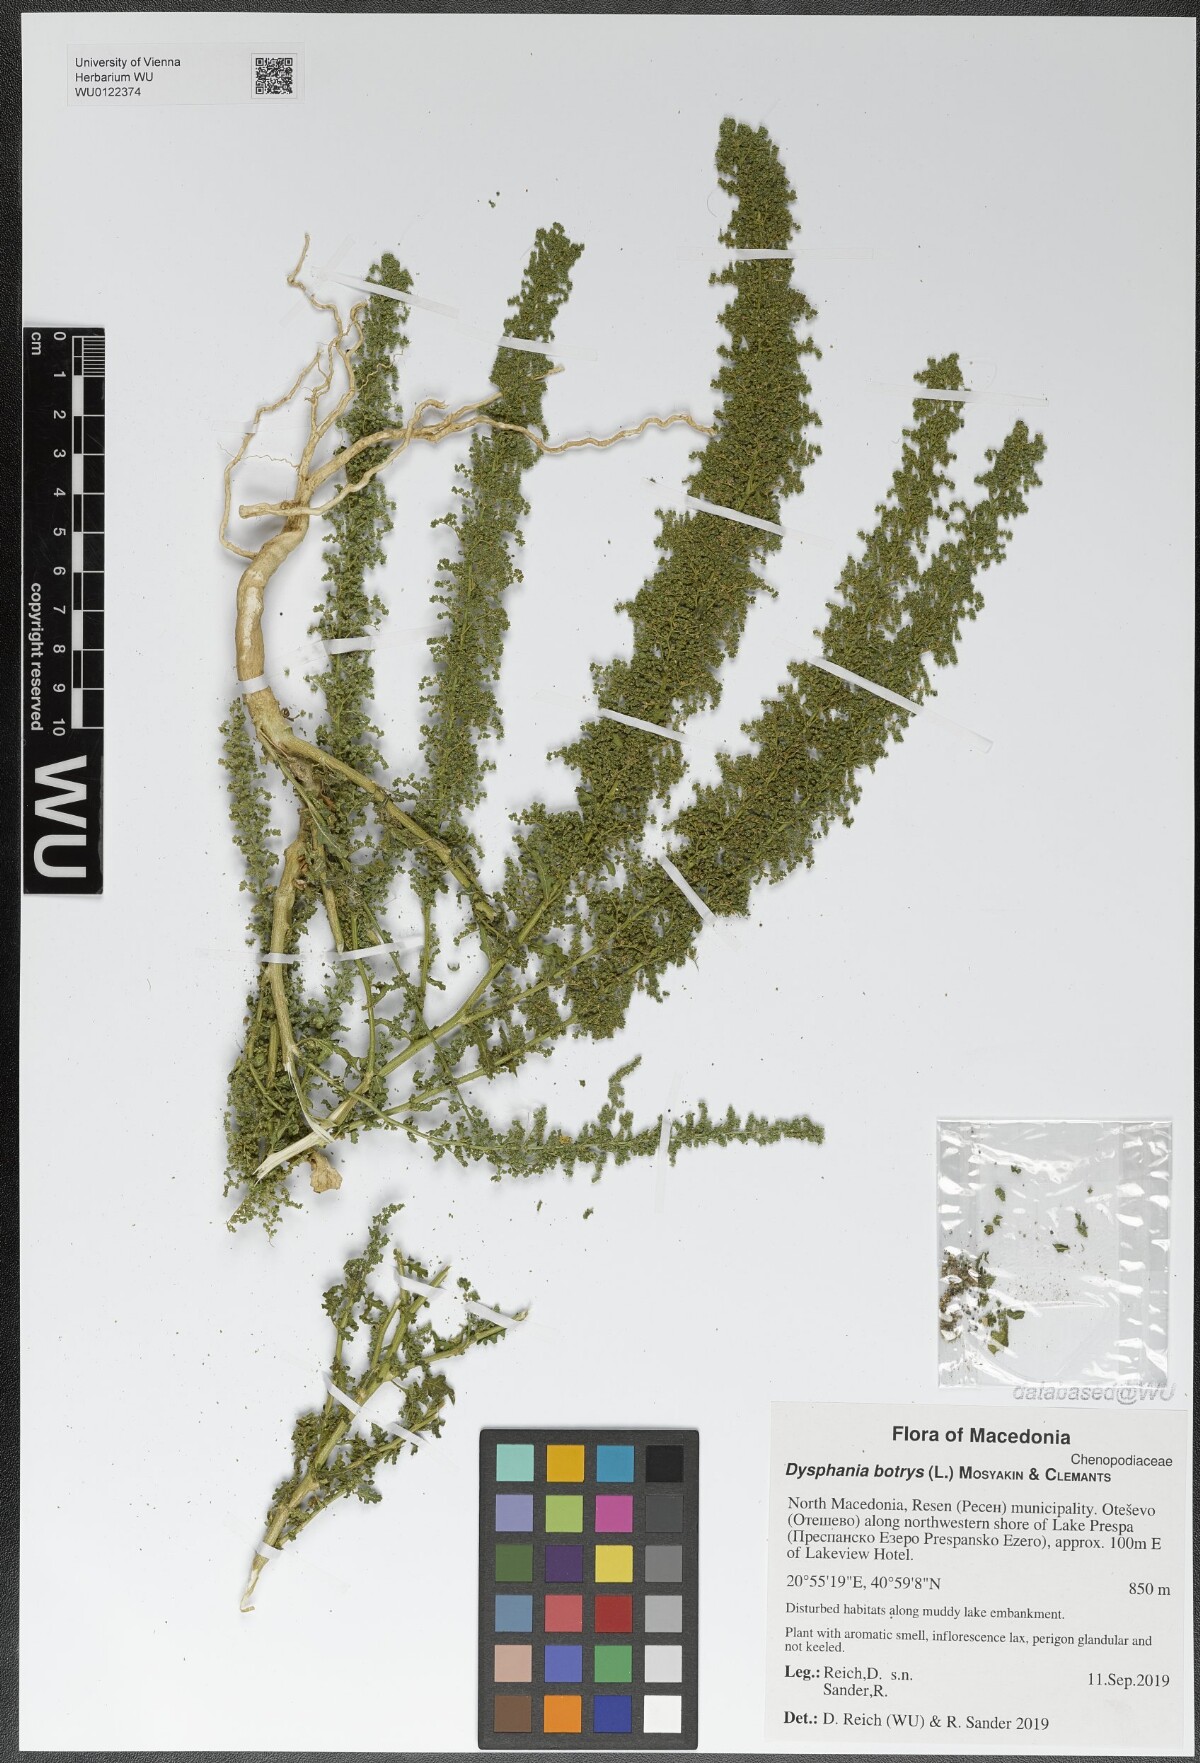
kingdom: Plantae
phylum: Tracheophyta
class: Magnoliopsida
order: Caryophyllales
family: Amaranthaceae
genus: Dysphania
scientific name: Dysphania botrys
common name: Feather-geranium
